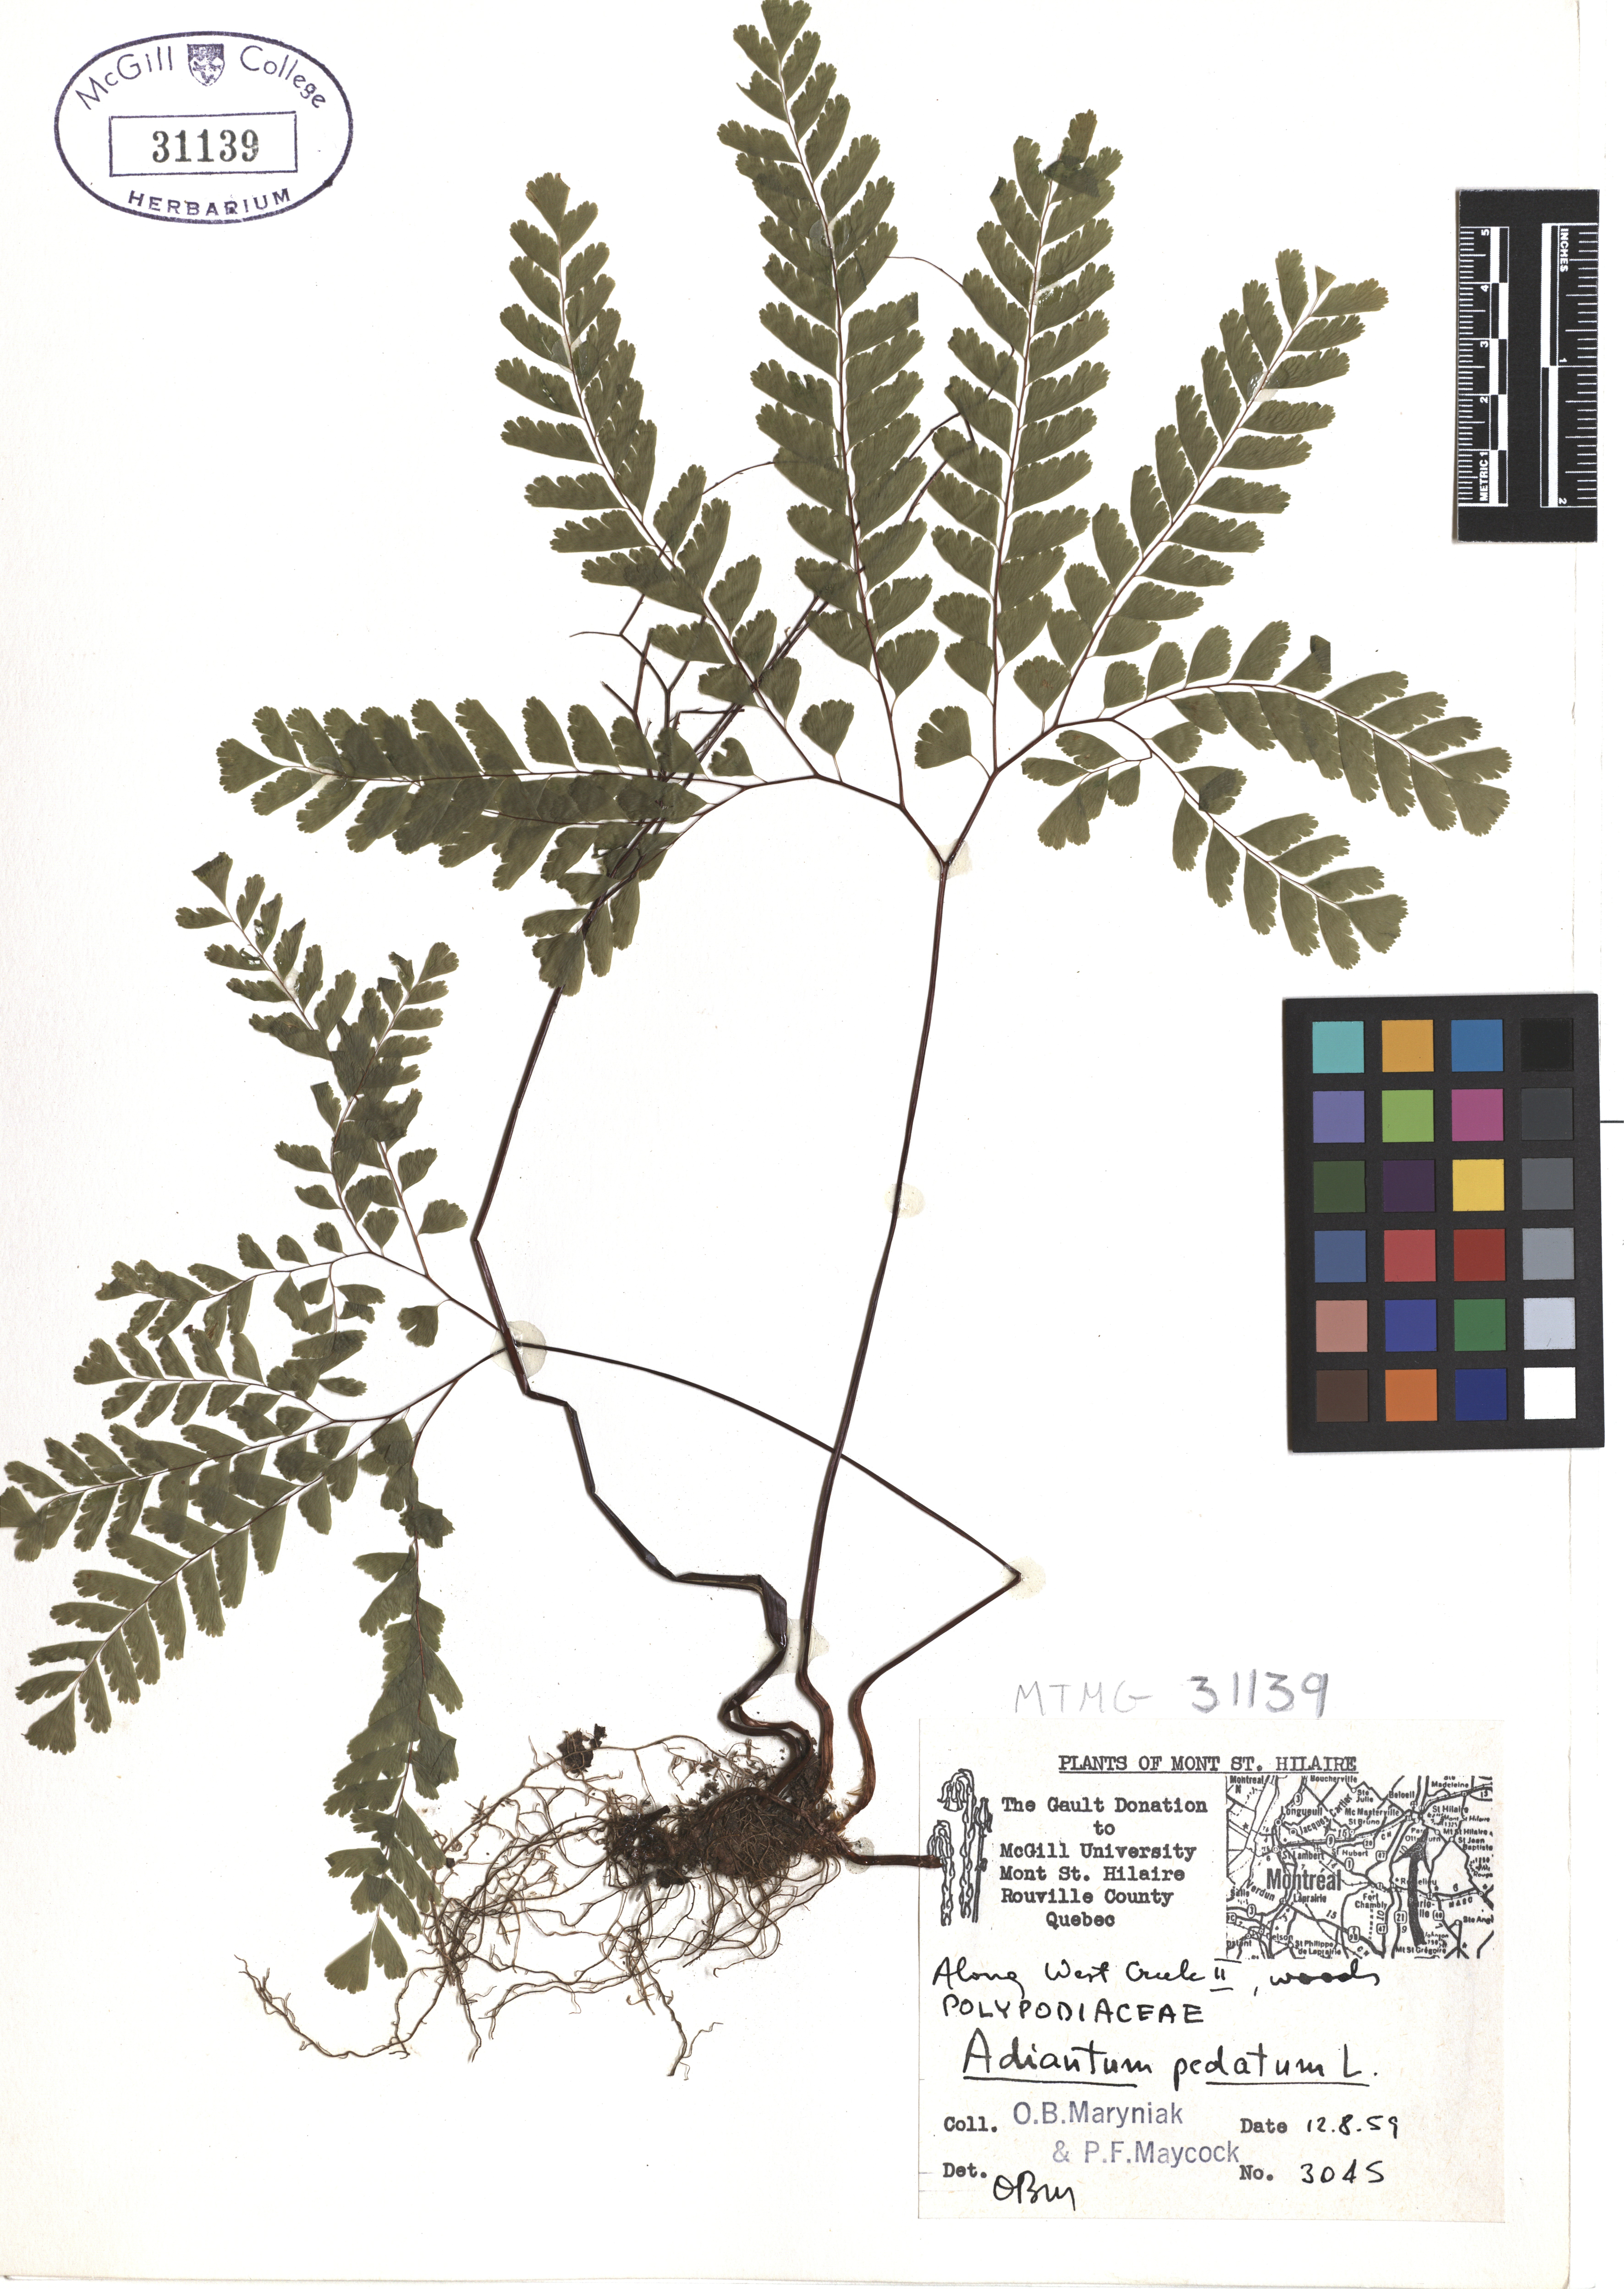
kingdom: Plantae
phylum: Tracheophyta
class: Polypodiopsida
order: Polypodiales
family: Pteridaceae
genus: Adiantum
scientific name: Adiantum pedatum
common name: Five-finger fern
